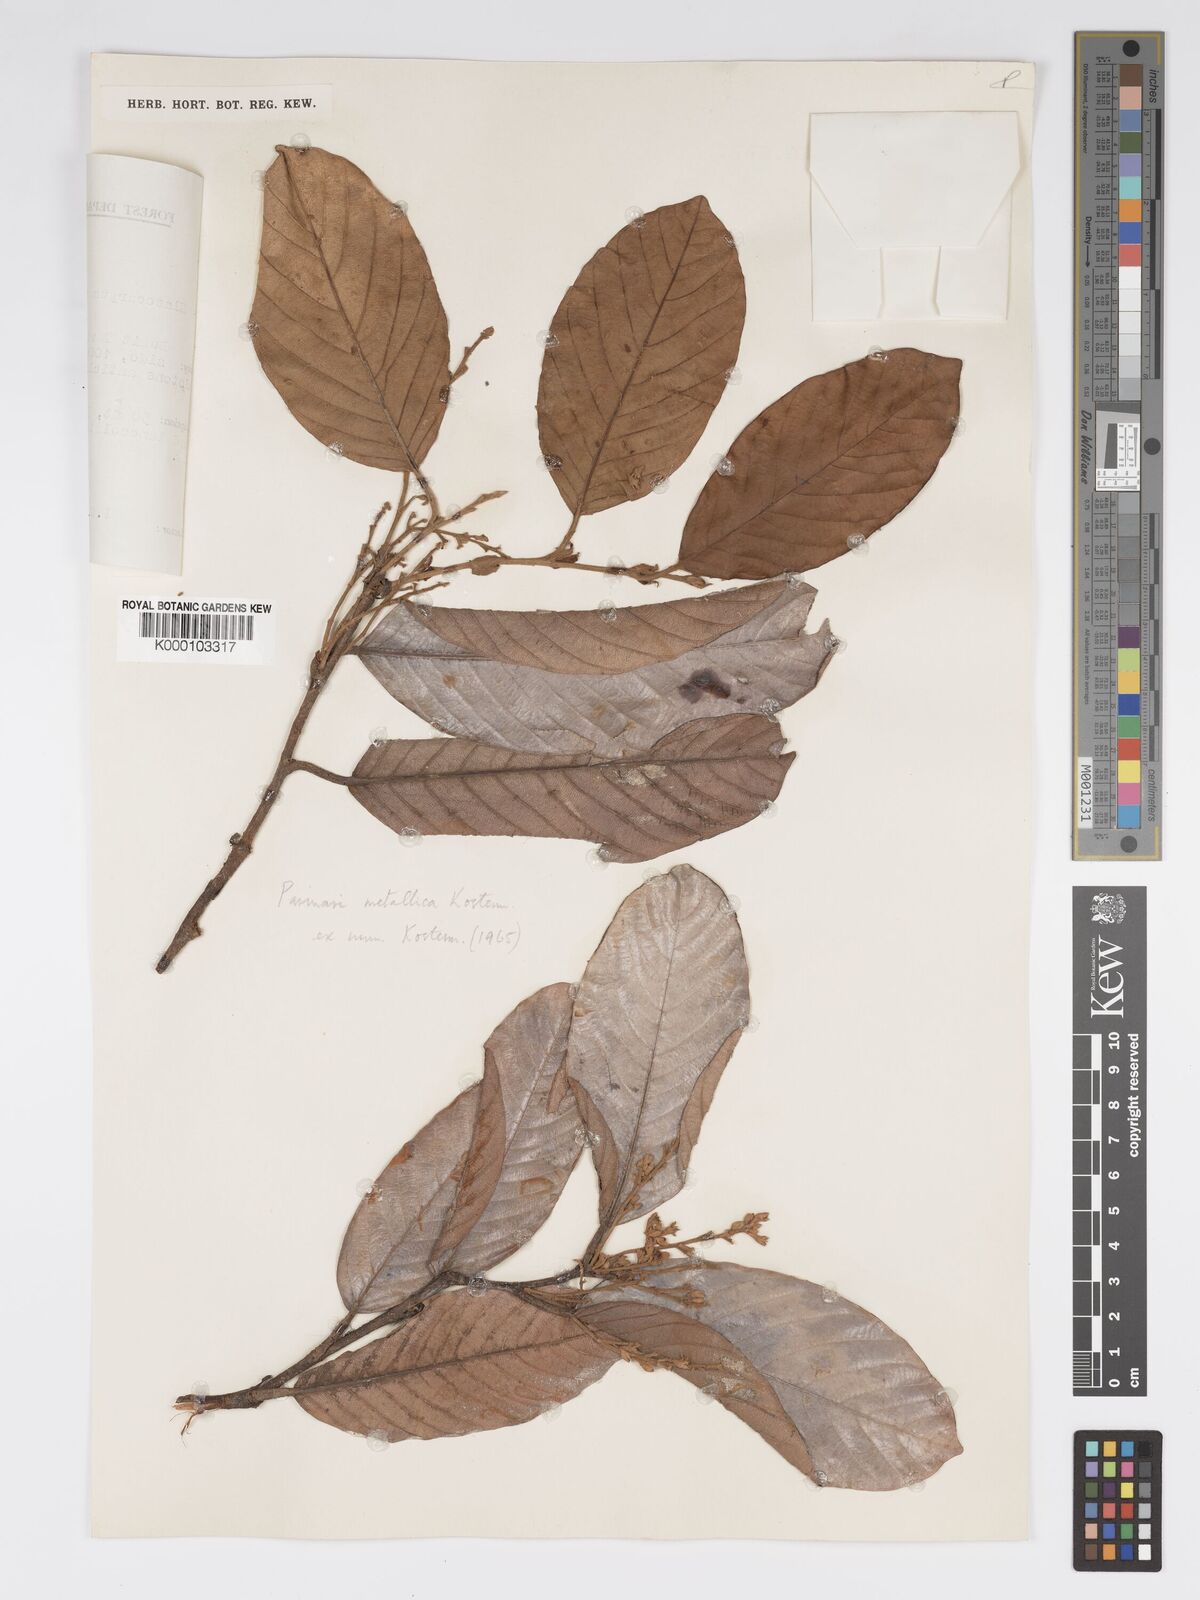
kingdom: Plantae
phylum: Tracheophyta
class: Magnoliopsida
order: Malpighiales
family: Chrysobalanaceae
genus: Parinari
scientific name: Parinari metallica
